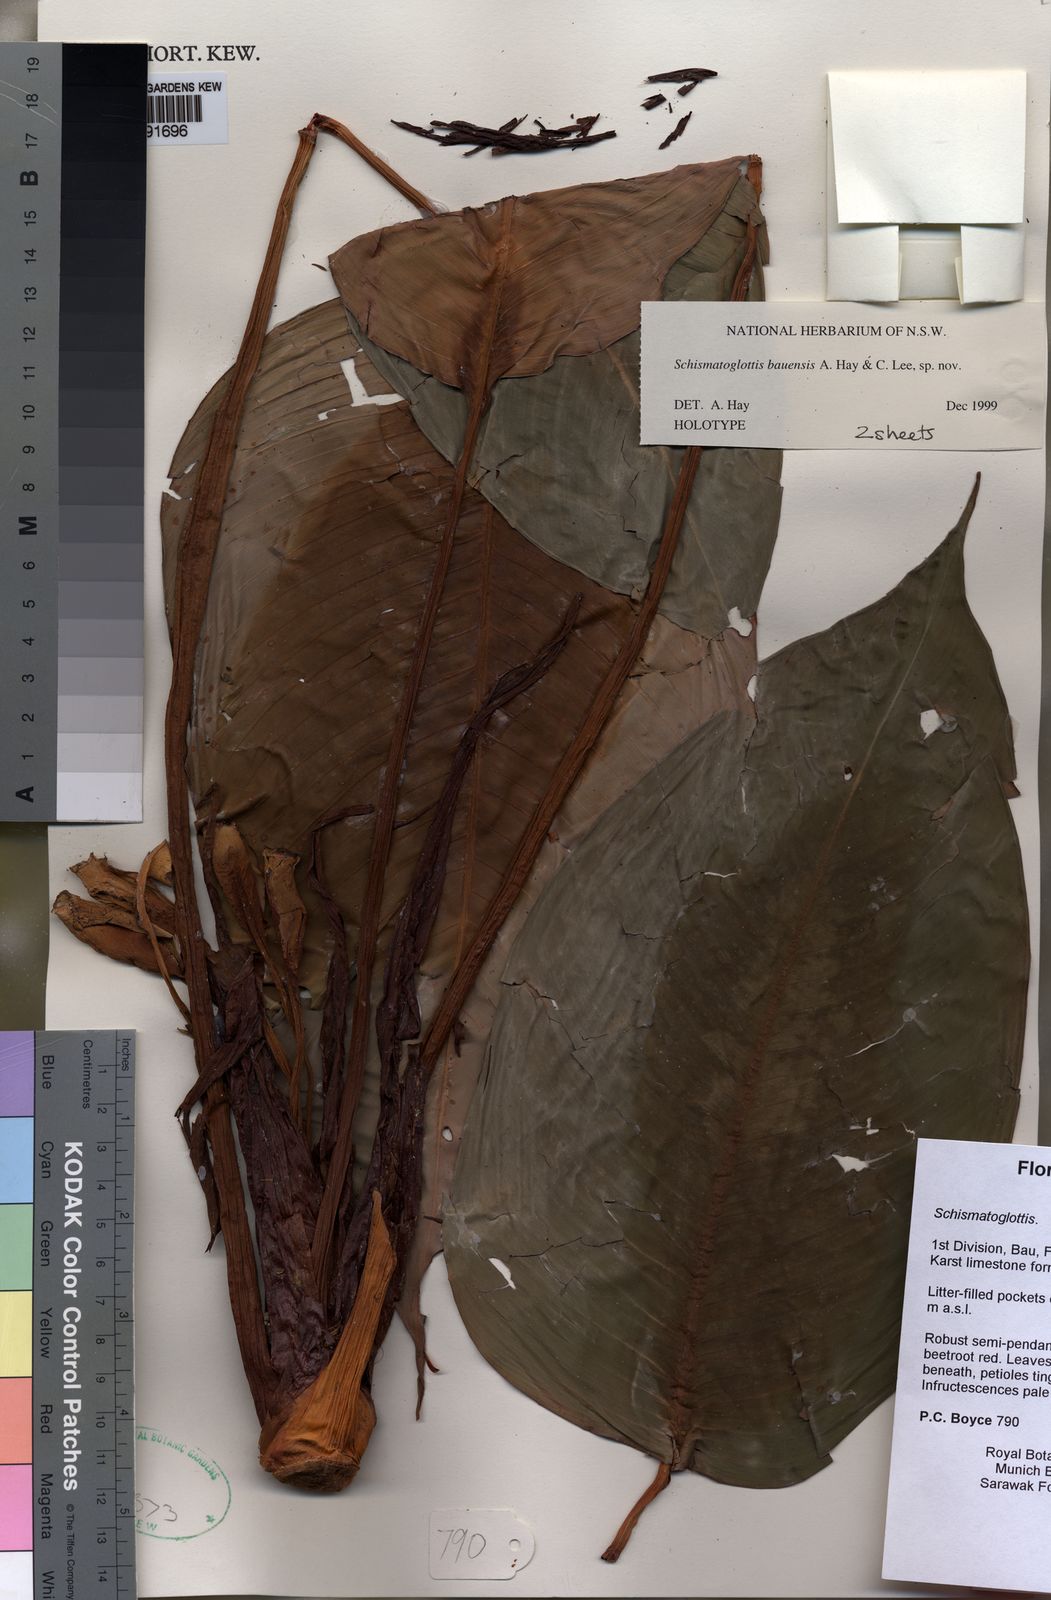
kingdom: Plantae
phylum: Tracheophyta
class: Liliopsida
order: Alismatales
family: Araceae
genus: Schismatoglottis
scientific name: Schismatoglottis bauensis
